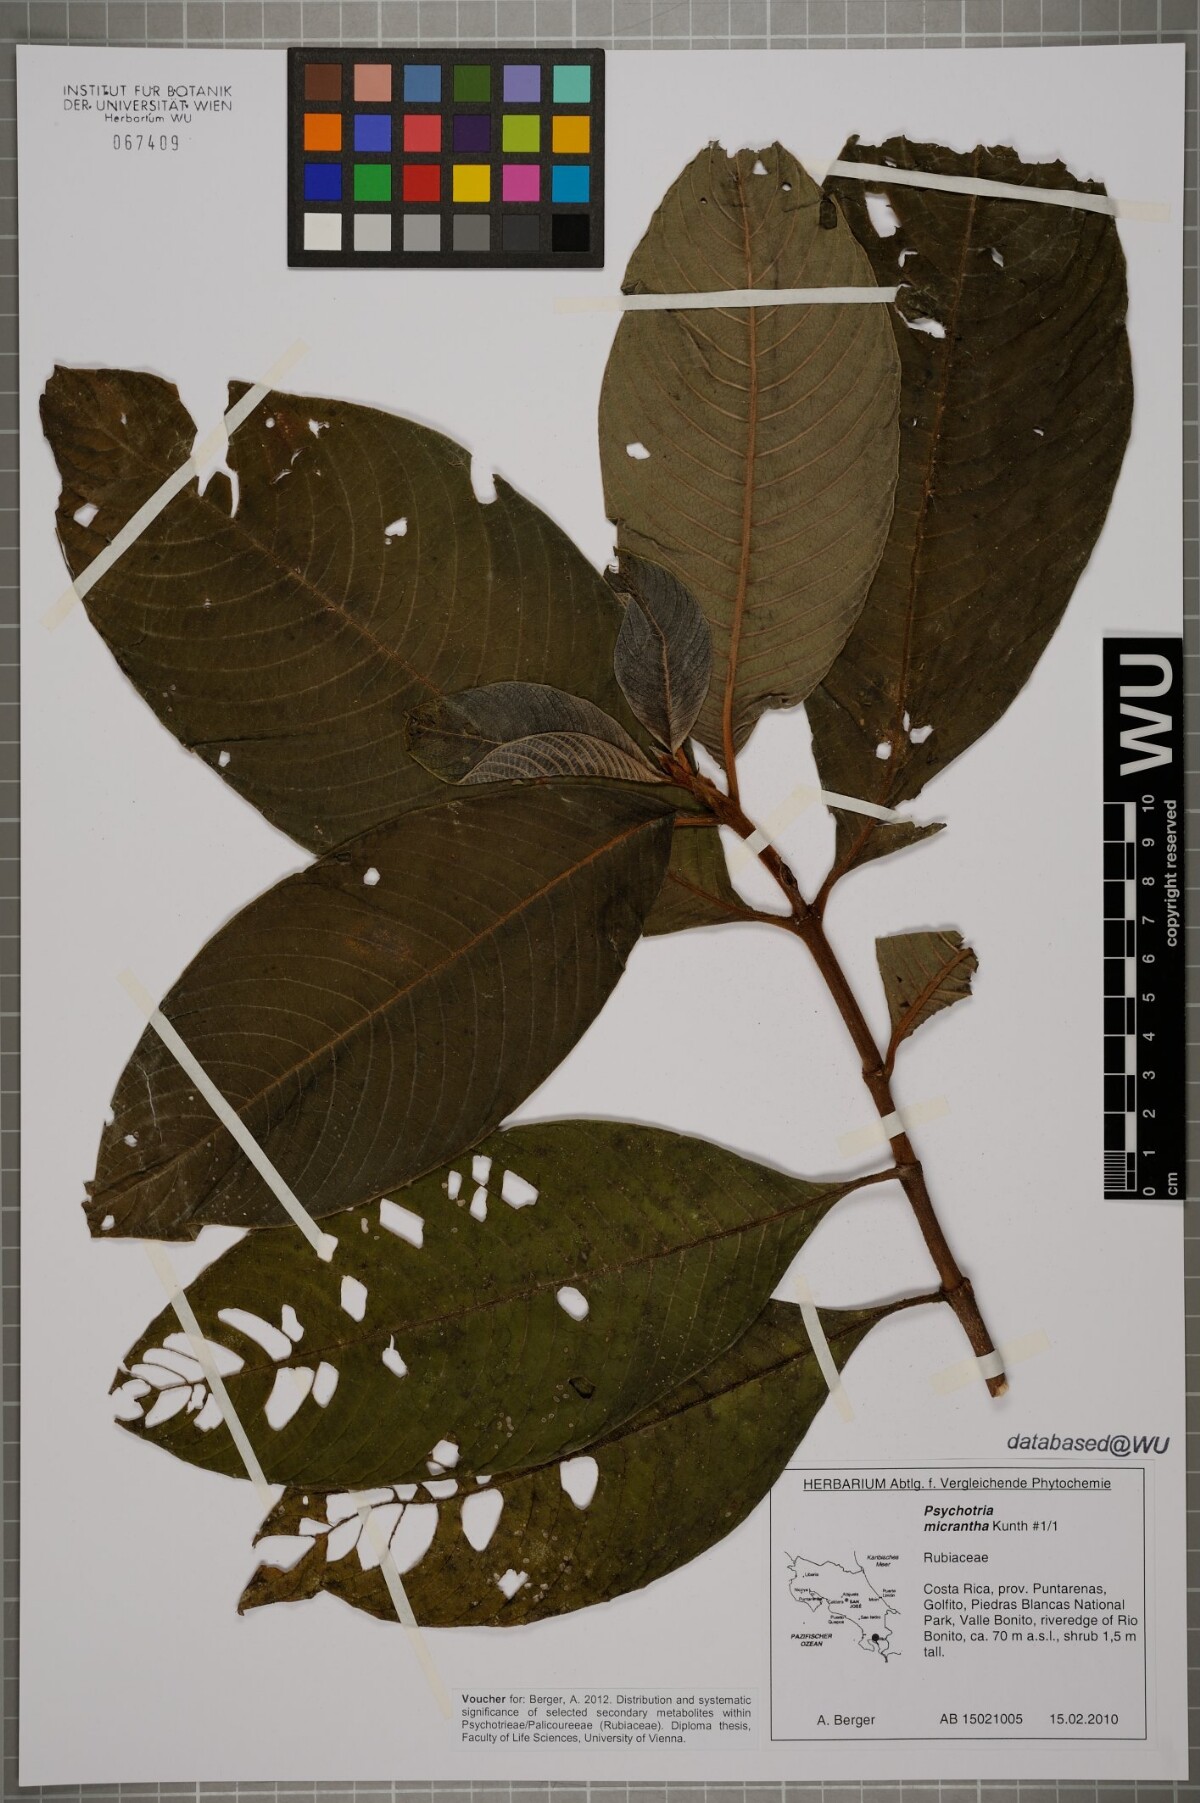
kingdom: Plantae
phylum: Tracheophyta
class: Magnoliopsida
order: Gentianales
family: Rubiaceae
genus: Psychotria
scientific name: Psychotria micrantha
